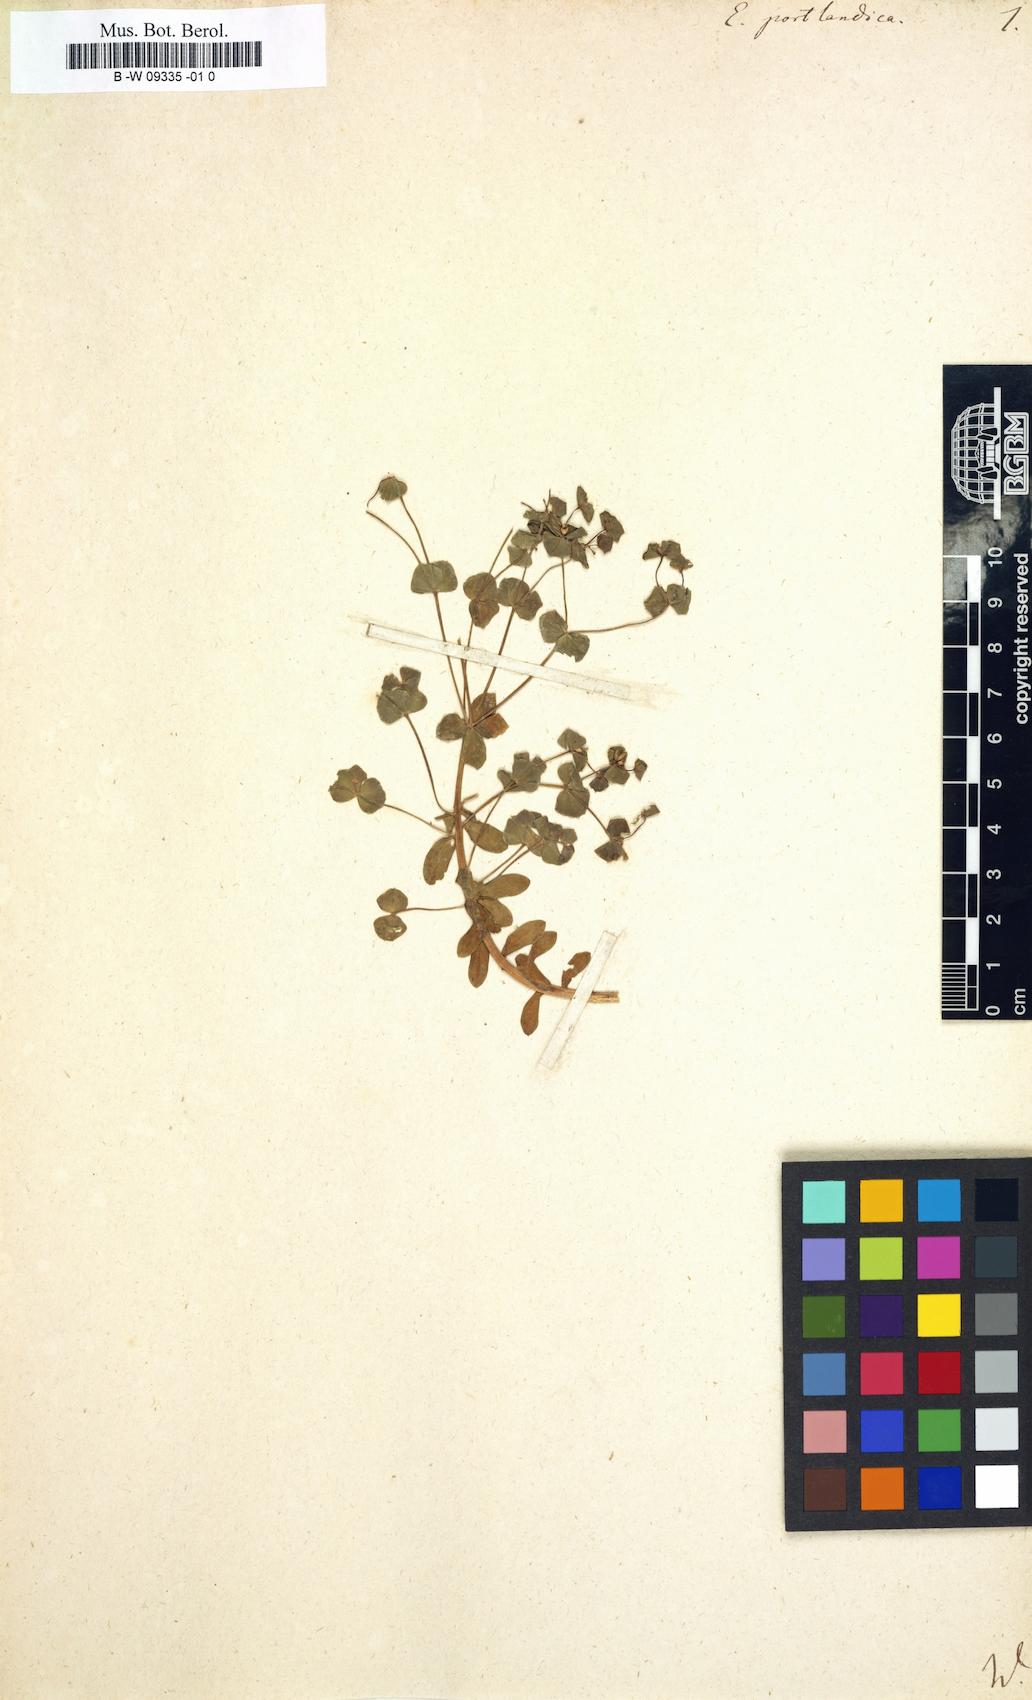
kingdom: Plantae
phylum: Tracheophyta
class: Magnoliopsida
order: Malpighiales
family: Euphorbiaceae
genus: Euphorbia
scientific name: Euphorbia portlandica
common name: Portland spurge
